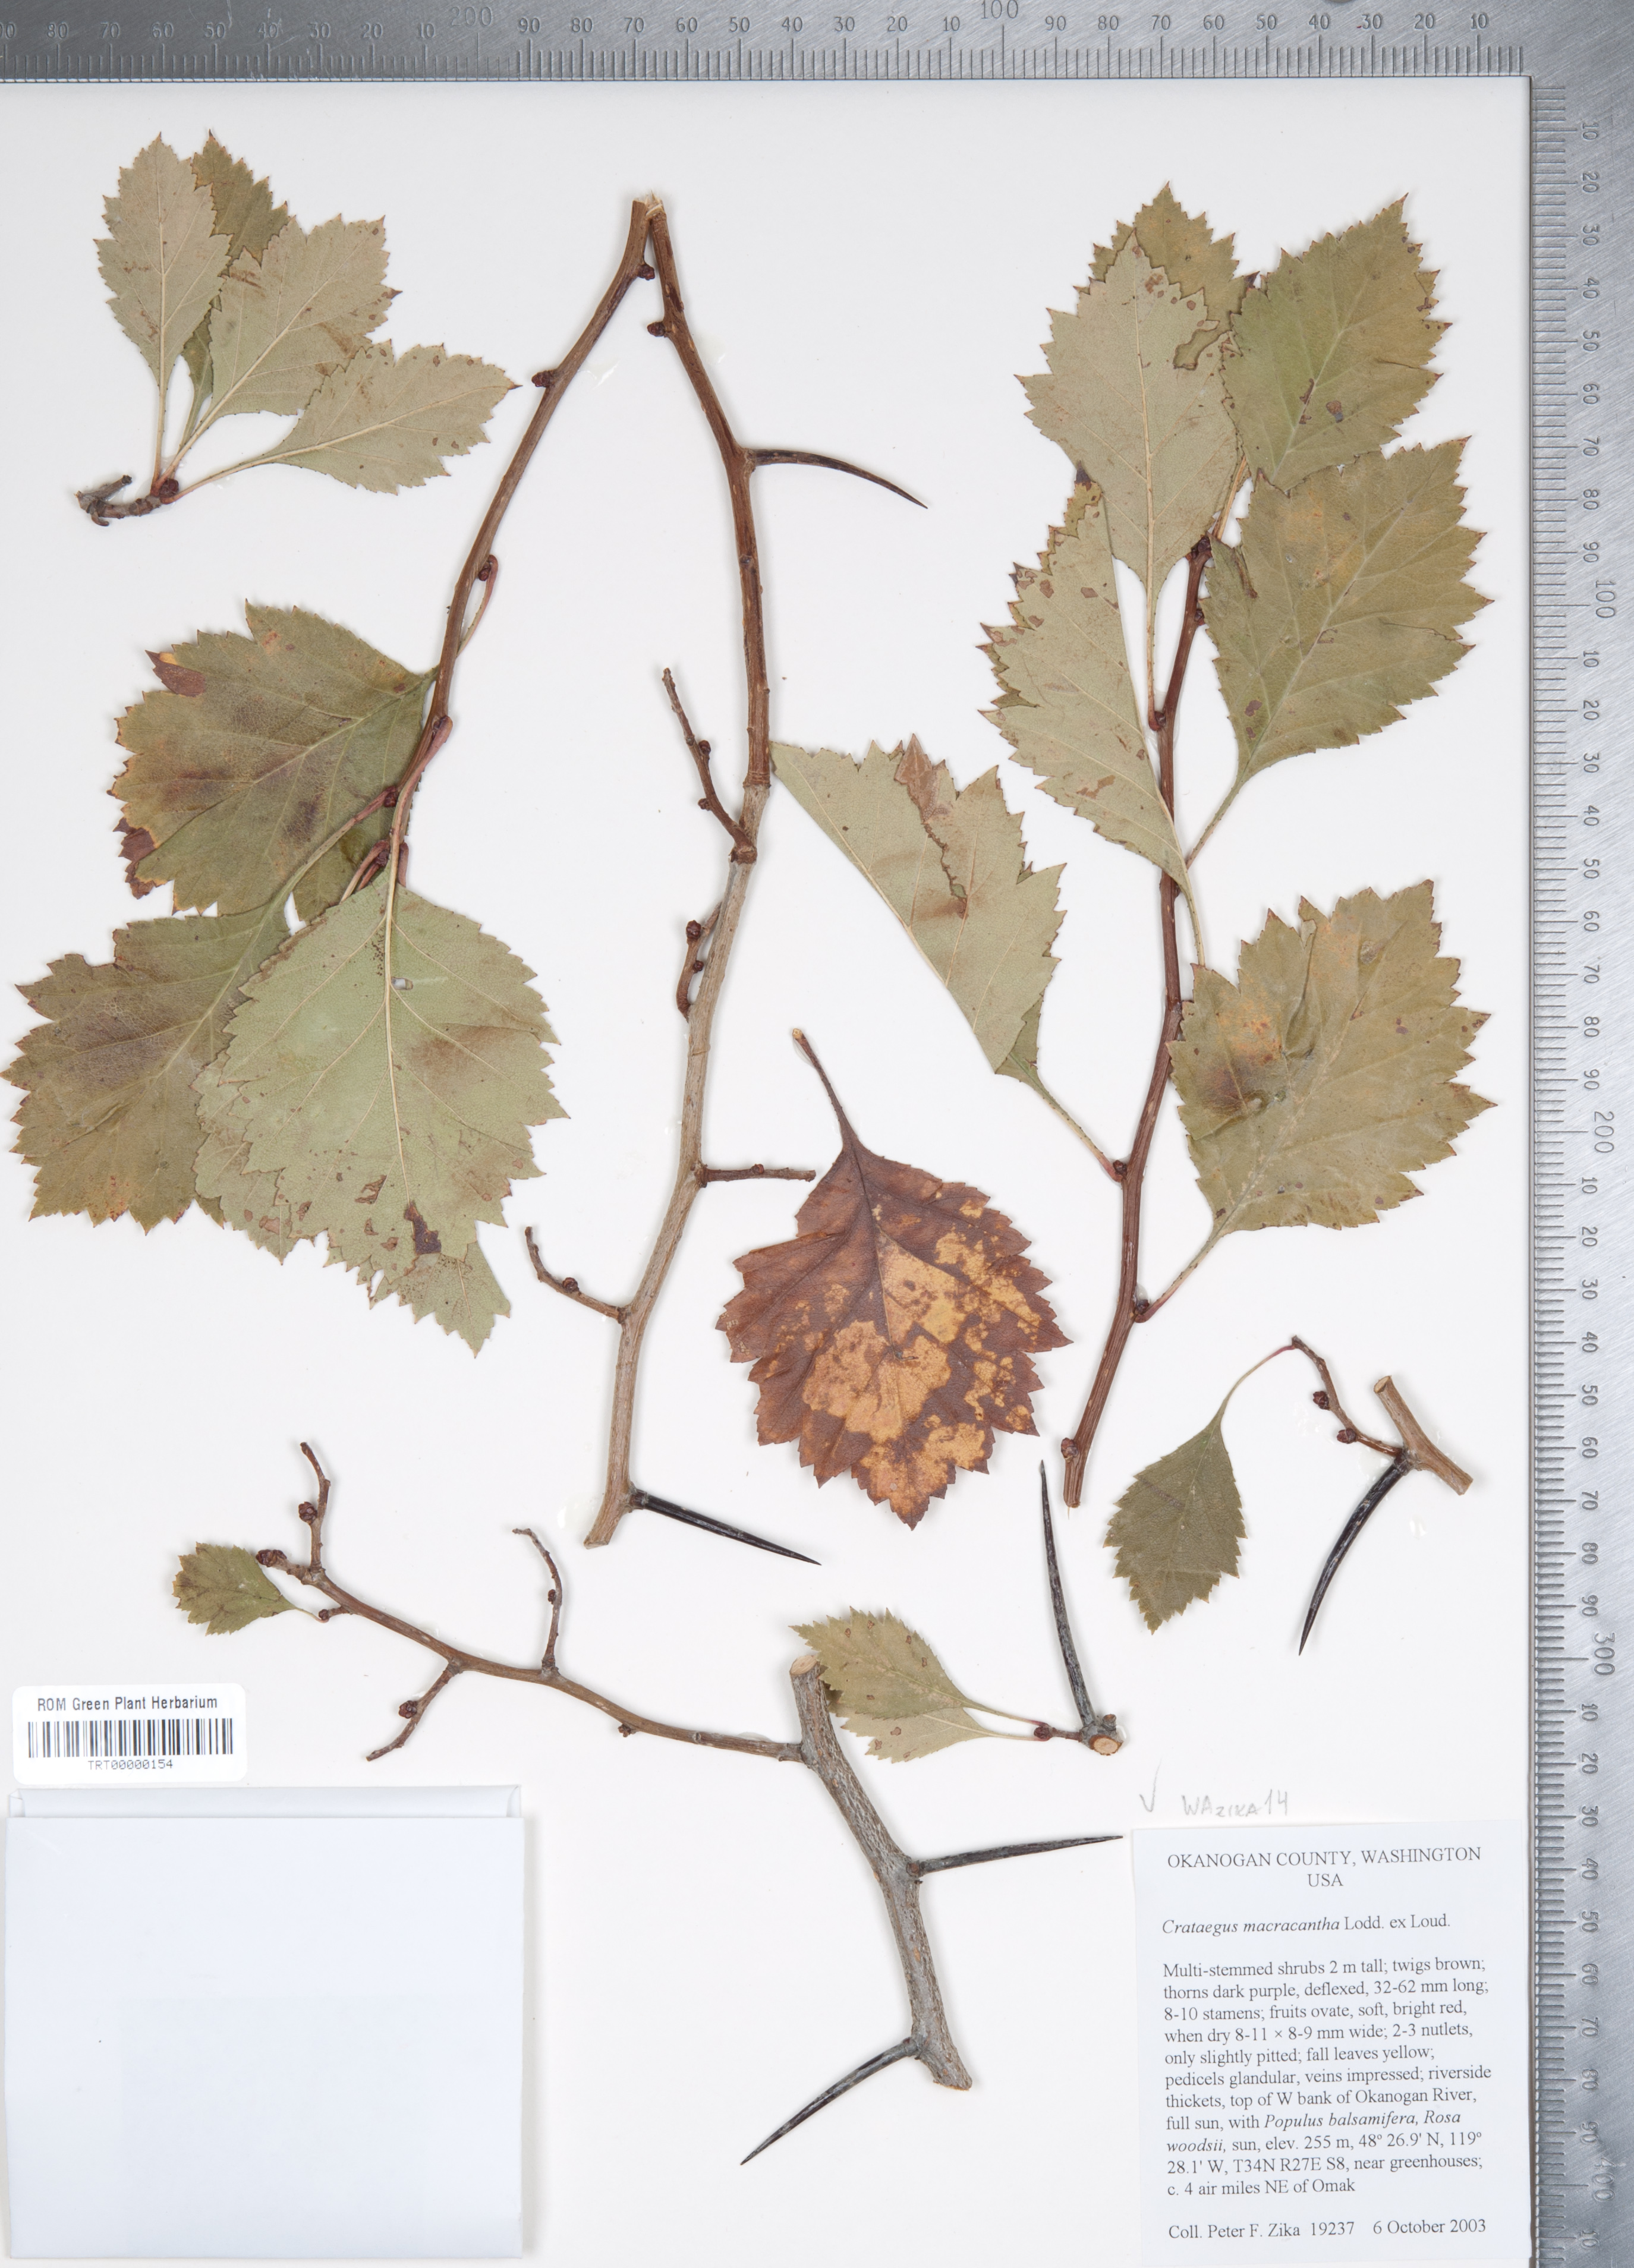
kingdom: Plantae
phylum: Tracheophyta
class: Magnoliopsida
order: Rosales
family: Rosaceae
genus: Crataegus
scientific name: Crataegus macracantha
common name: Large-thorn hawthorn
